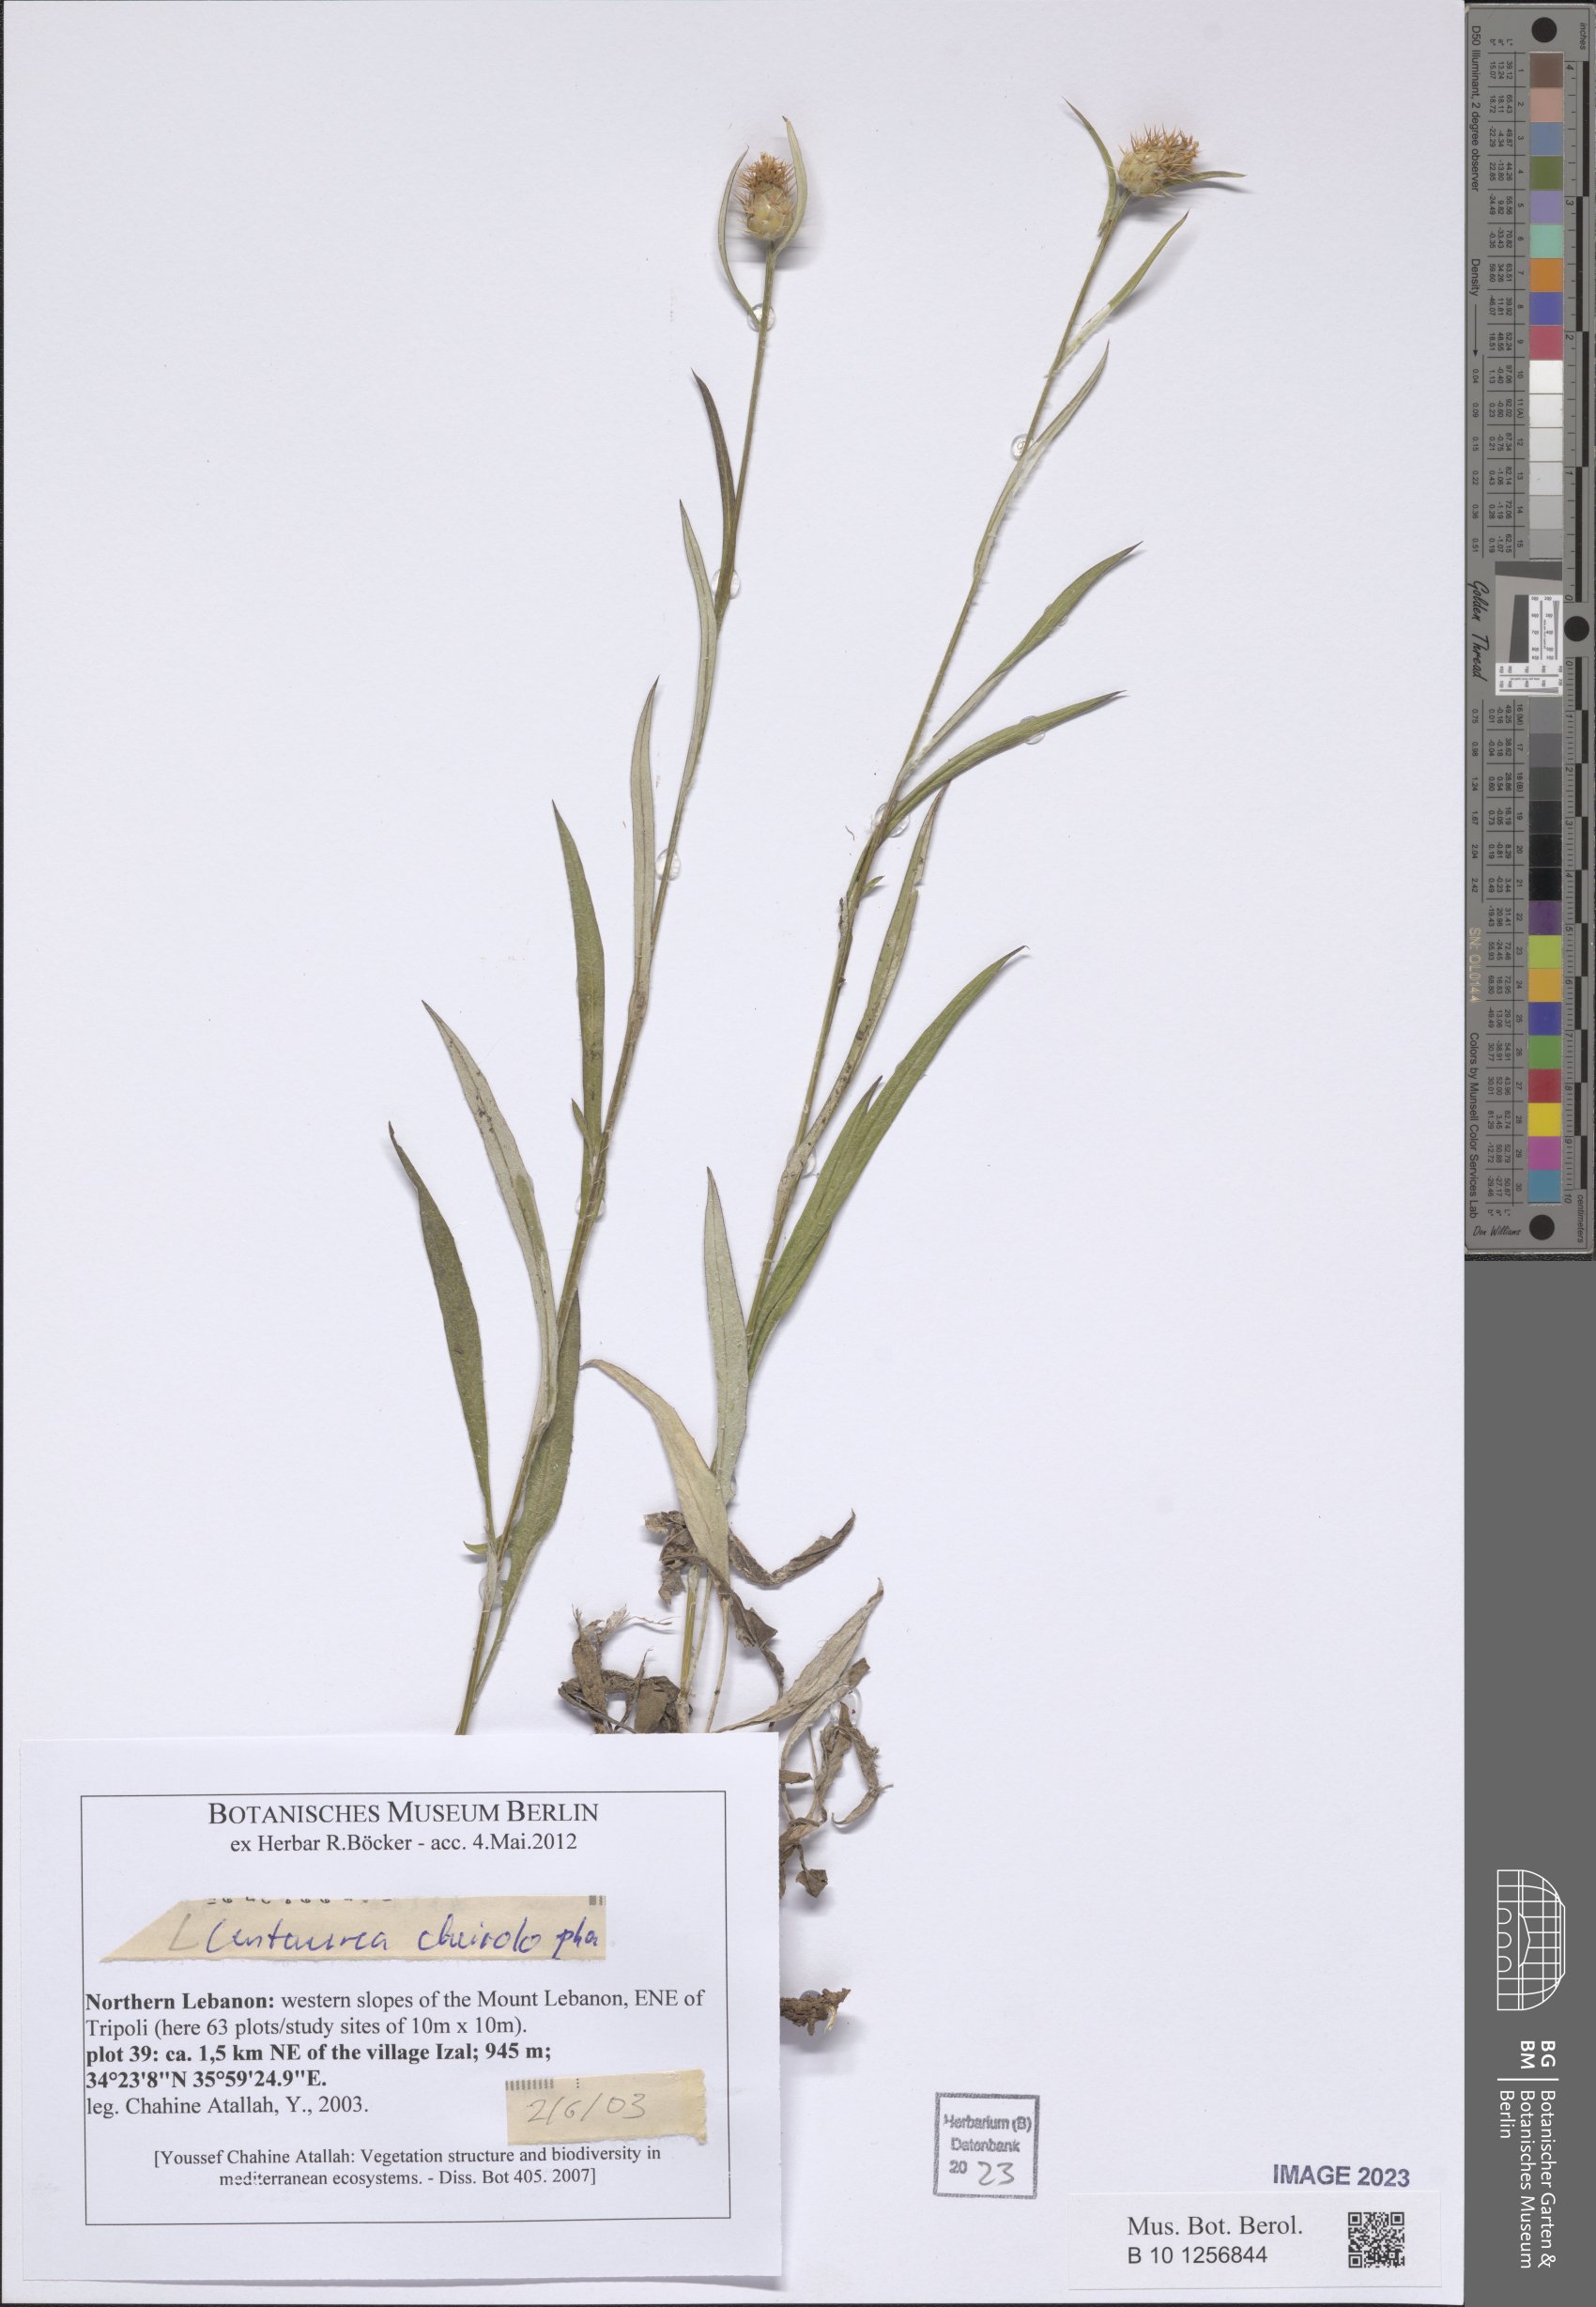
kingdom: Plantae
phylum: Tracheophyta
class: Magnoliopsida
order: Asterales
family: Asteraceae
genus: Centaurea
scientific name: Centaurea cheirolopha
